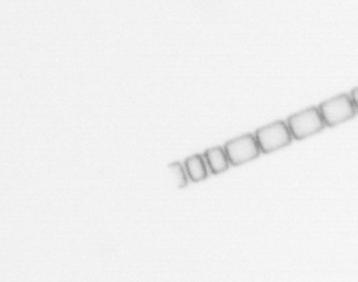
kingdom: Chromista
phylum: Ochrophyta
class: Bacillariophyceae
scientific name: Bacillariophyceae
